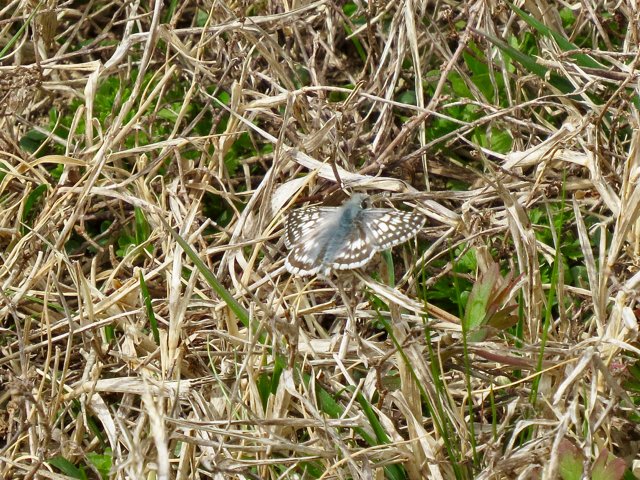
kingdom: Animalia
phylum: Arthropoda
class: Insecta
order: Lepidoptera
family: Hesperiidae
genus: Pyrgus
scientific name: Pyrgus communis
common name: Common Checkered-Skipper
